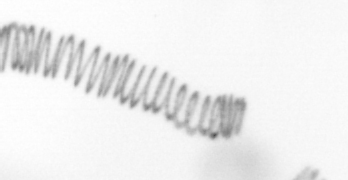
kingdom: Chromista
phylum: Ochrophyta
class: Bacillariophyceae
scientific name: Bacillariophyceae
